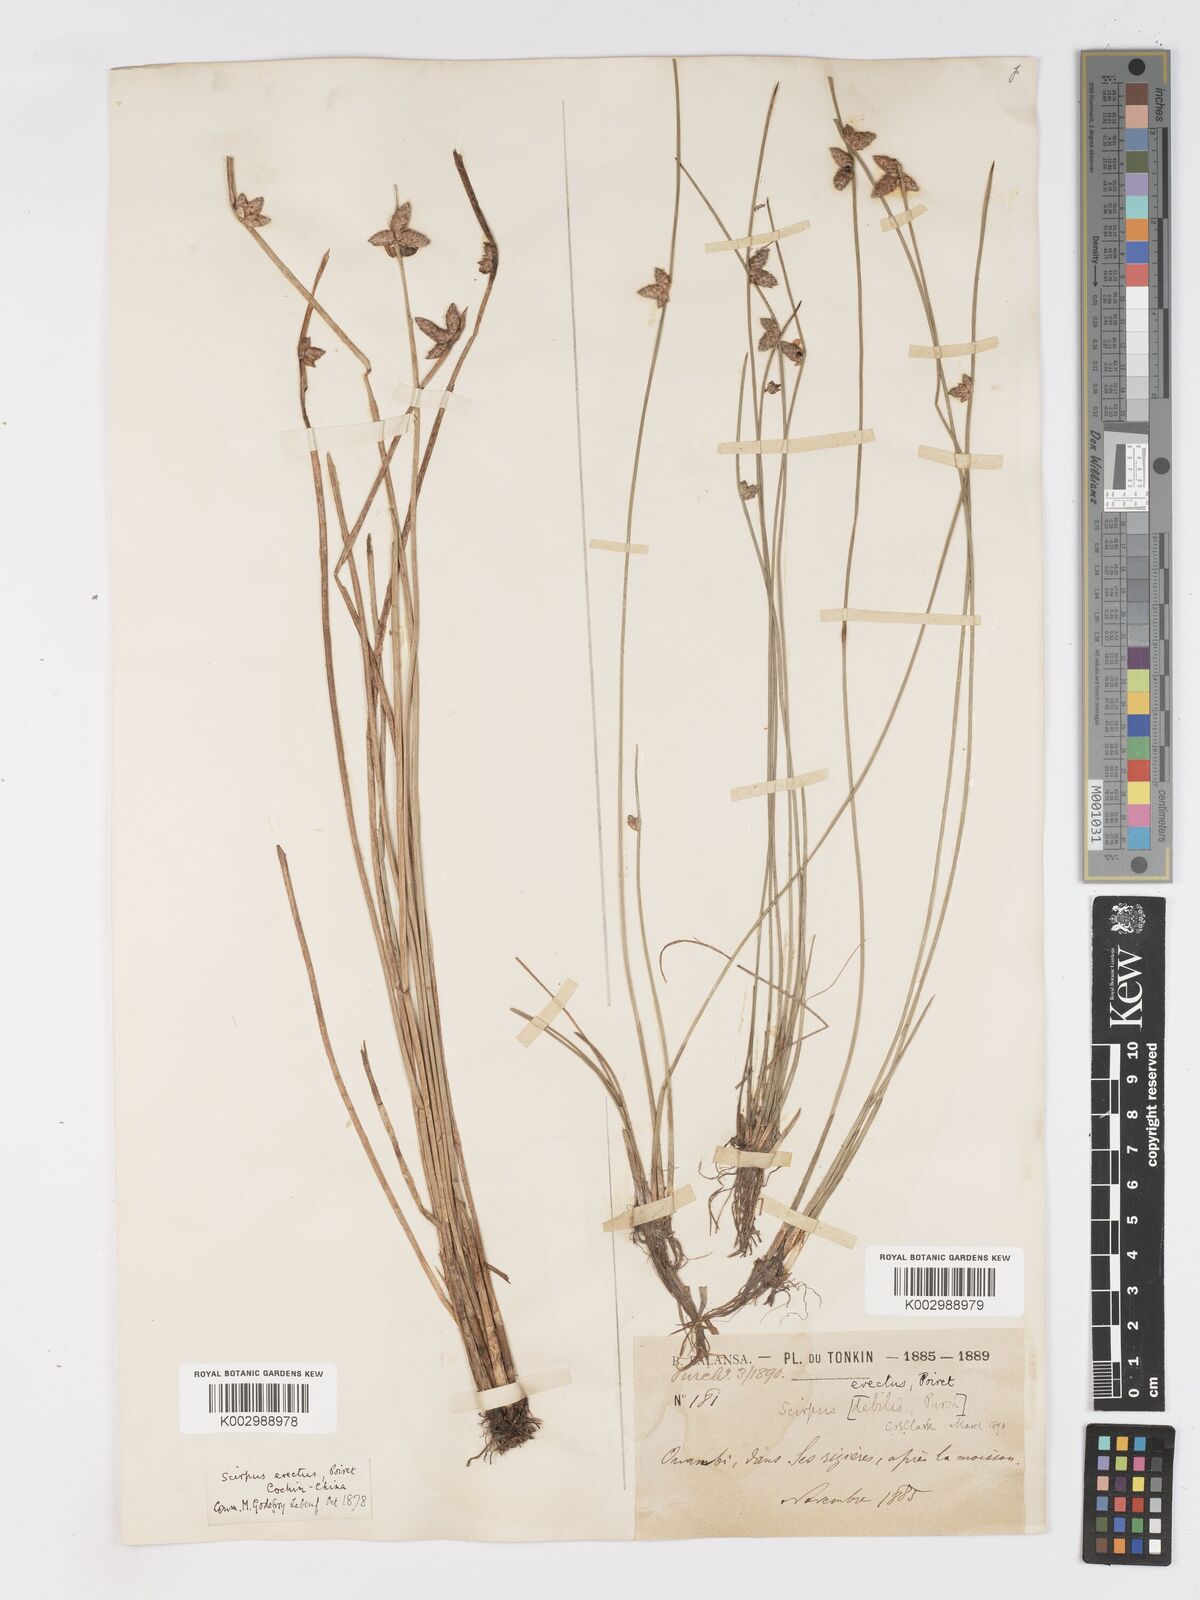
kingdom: Plantae
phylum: Tracheophyta
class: Liliopsida
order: Poales
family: Cyperaceae
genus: Schoenoplectiella
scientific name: Schoenoplectiella juncoides
